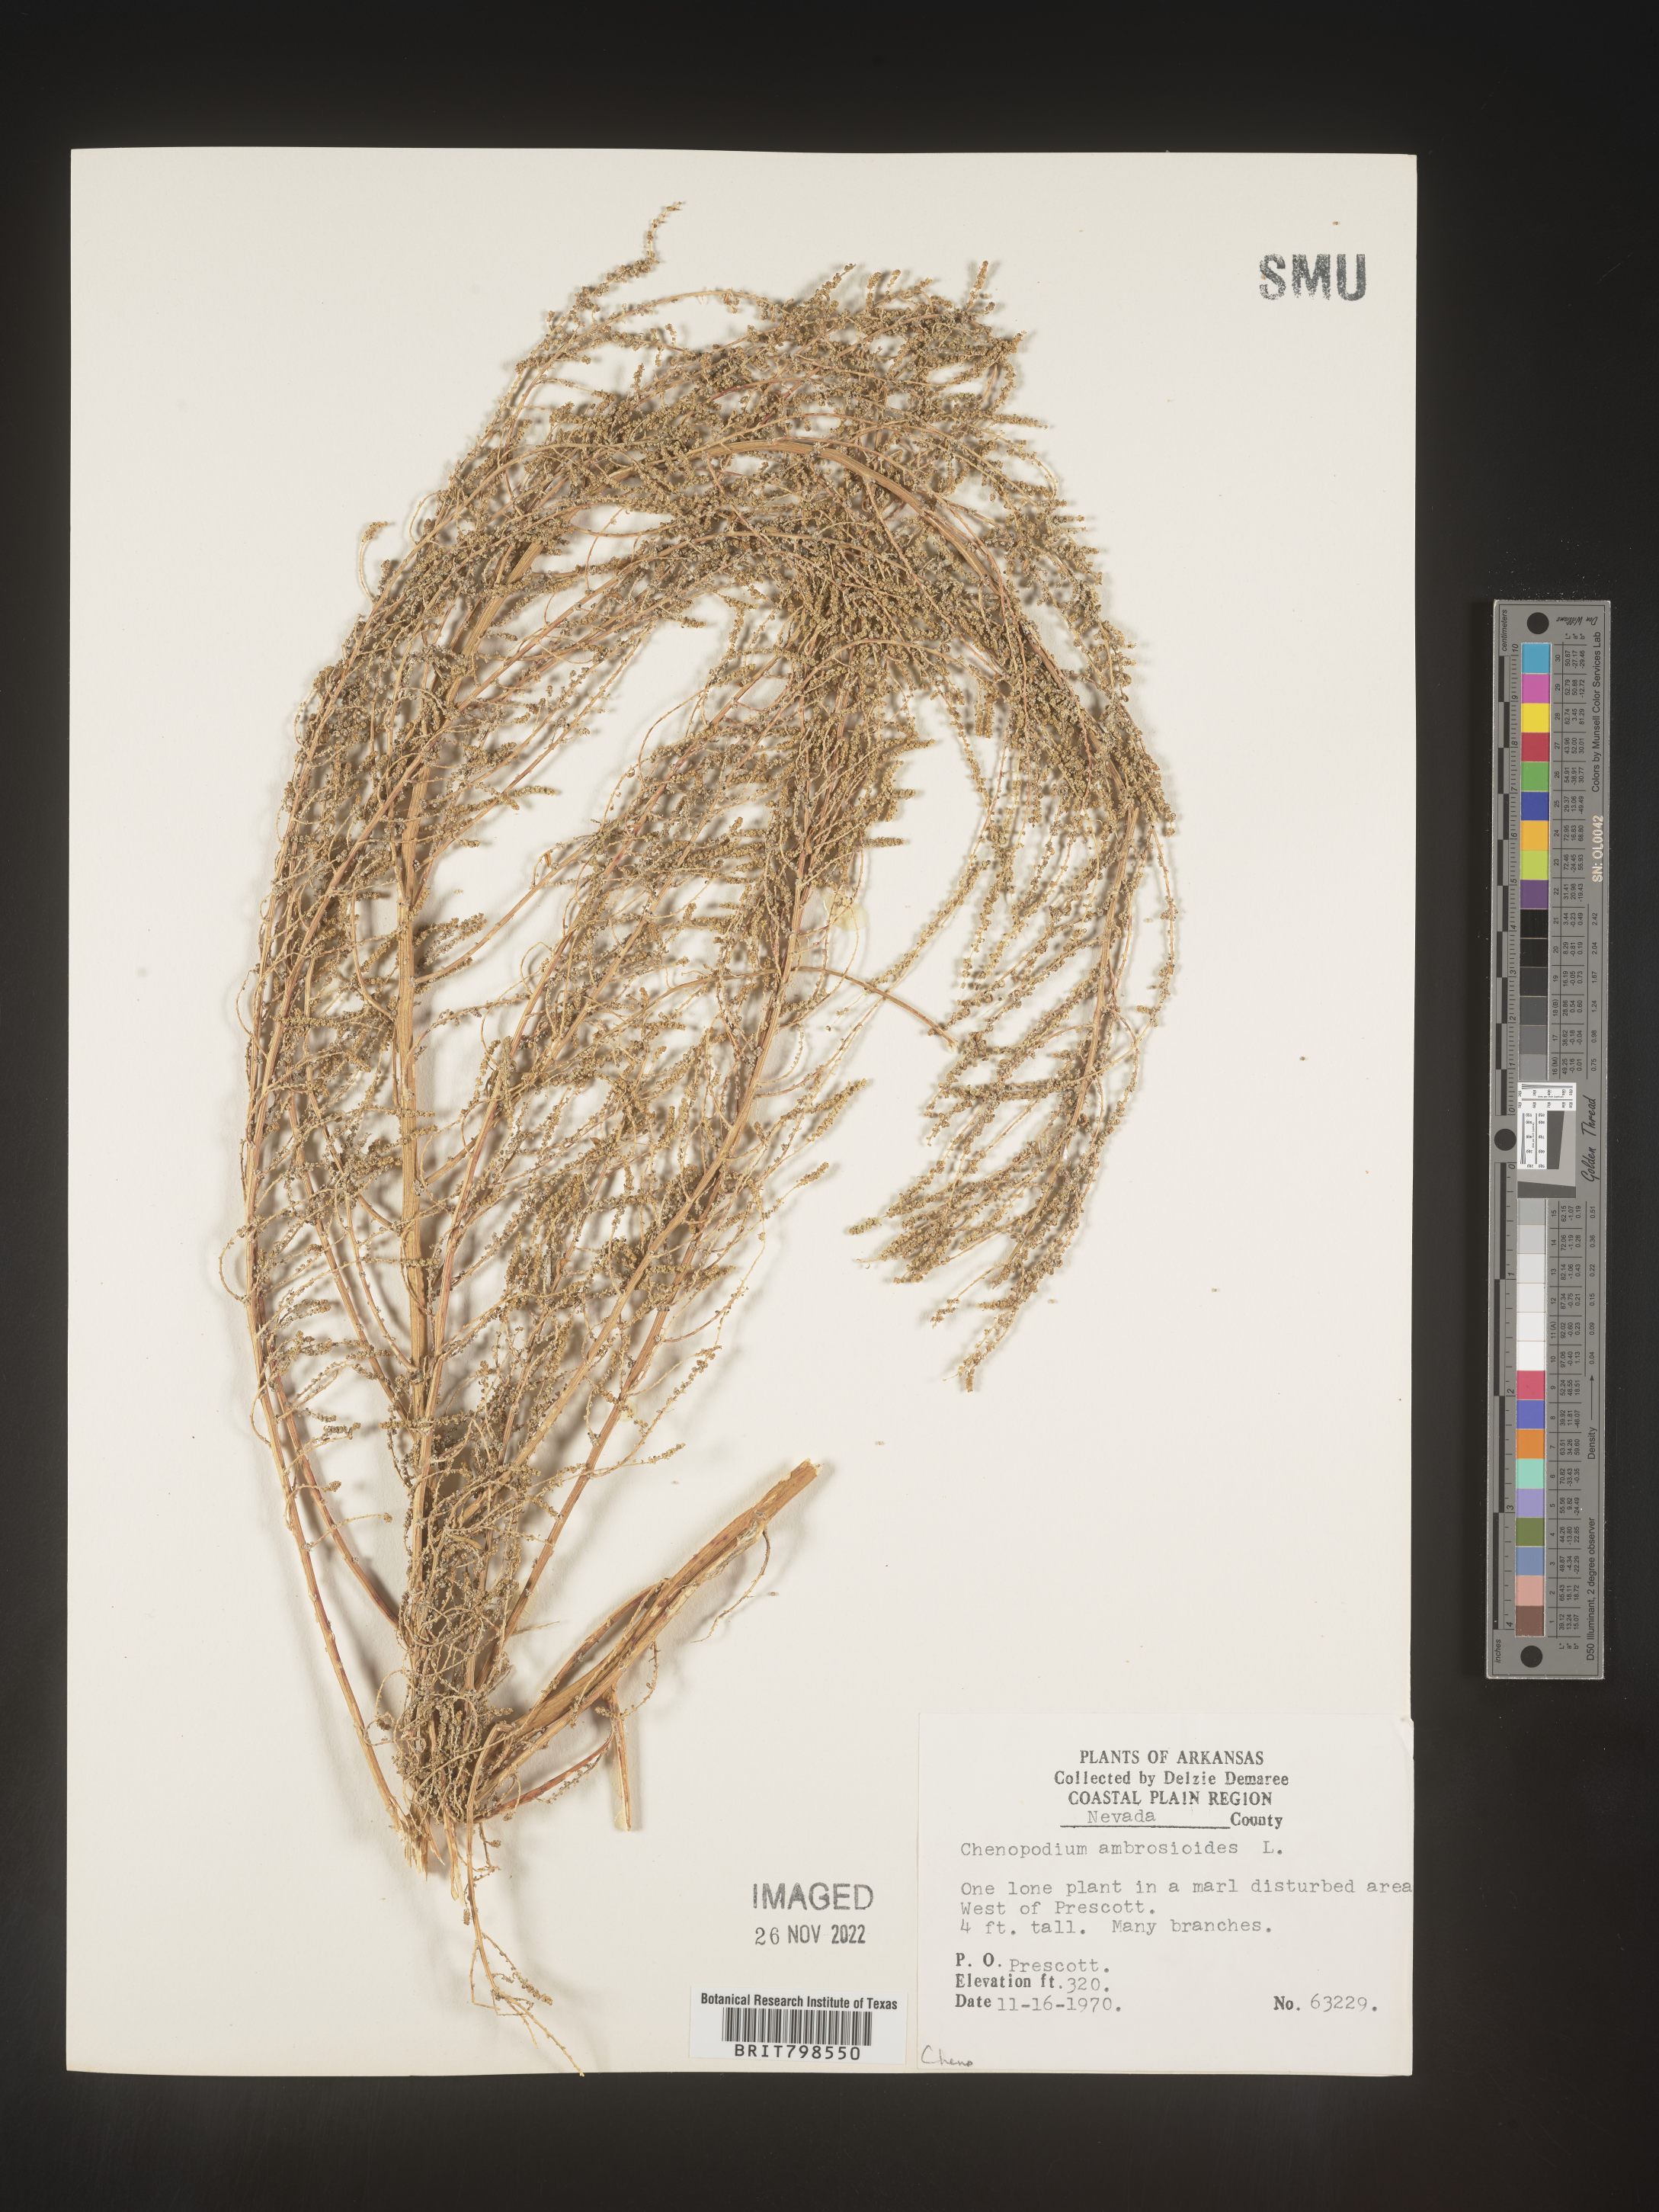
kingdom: Plantae
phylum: Tracheophyta
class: Magnoliopsida
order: Caryophyllales
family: Amaranthaceae
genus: Dysphania
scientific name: Dysphania ambrosioides
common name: Wormseed
